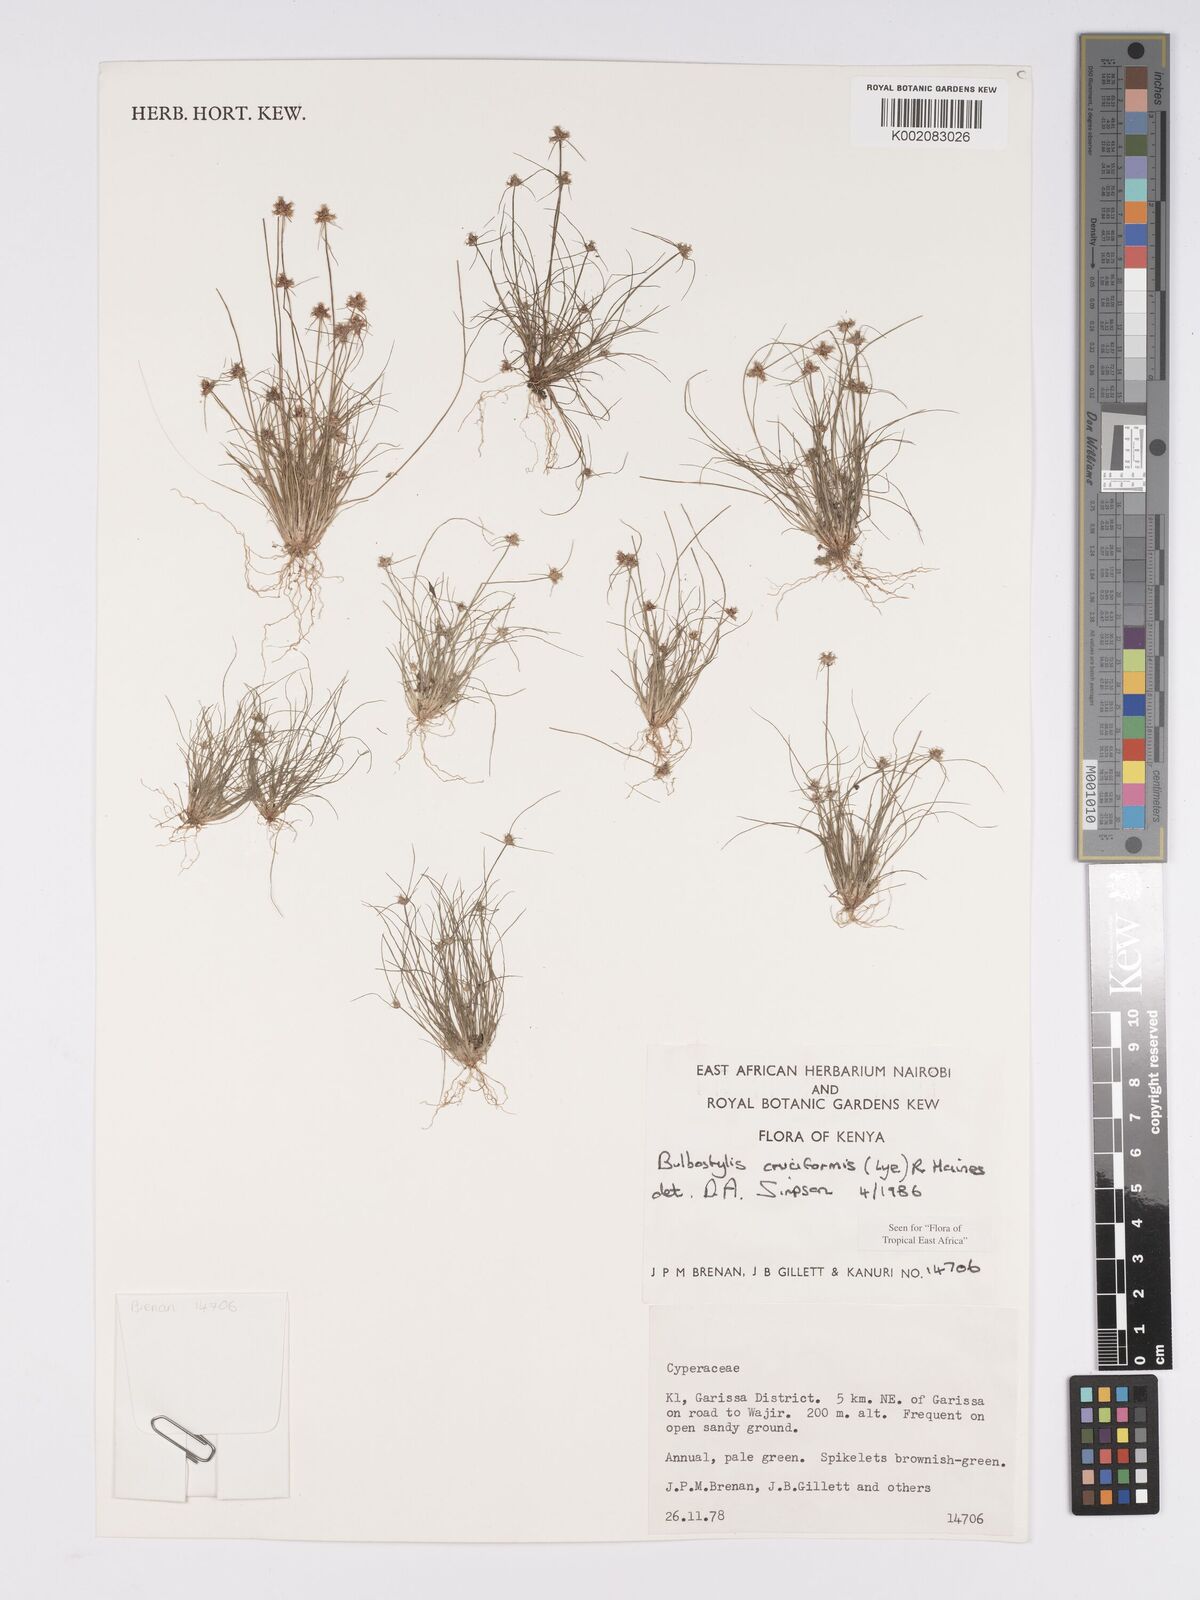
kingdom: Plantae
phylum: Tracheophyta
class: Liliopsida
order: Poales
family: Cyperaceae
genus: Bulbostylis
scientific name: Bulbostylis cruciformis
